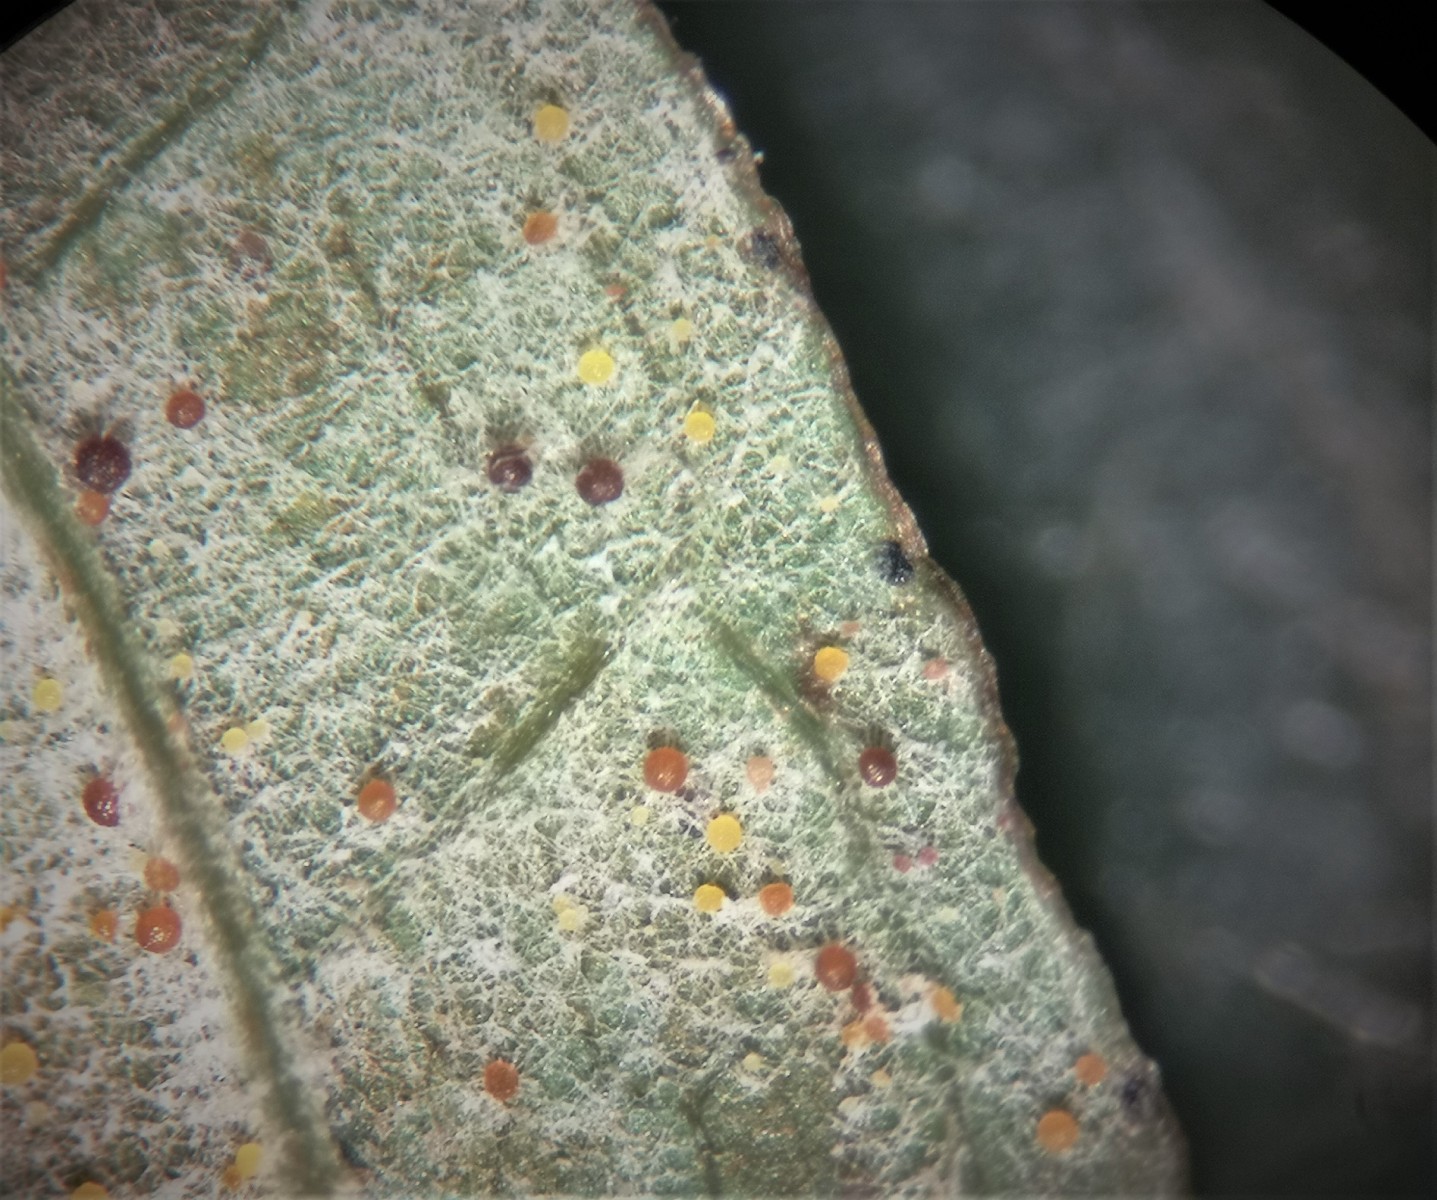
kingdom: Fungi
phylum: Ascomycota
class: Leotiomycetes
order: Helotiales
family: Erysiphaceae
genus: Erysiphe
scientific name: Erysiphe hyperici
